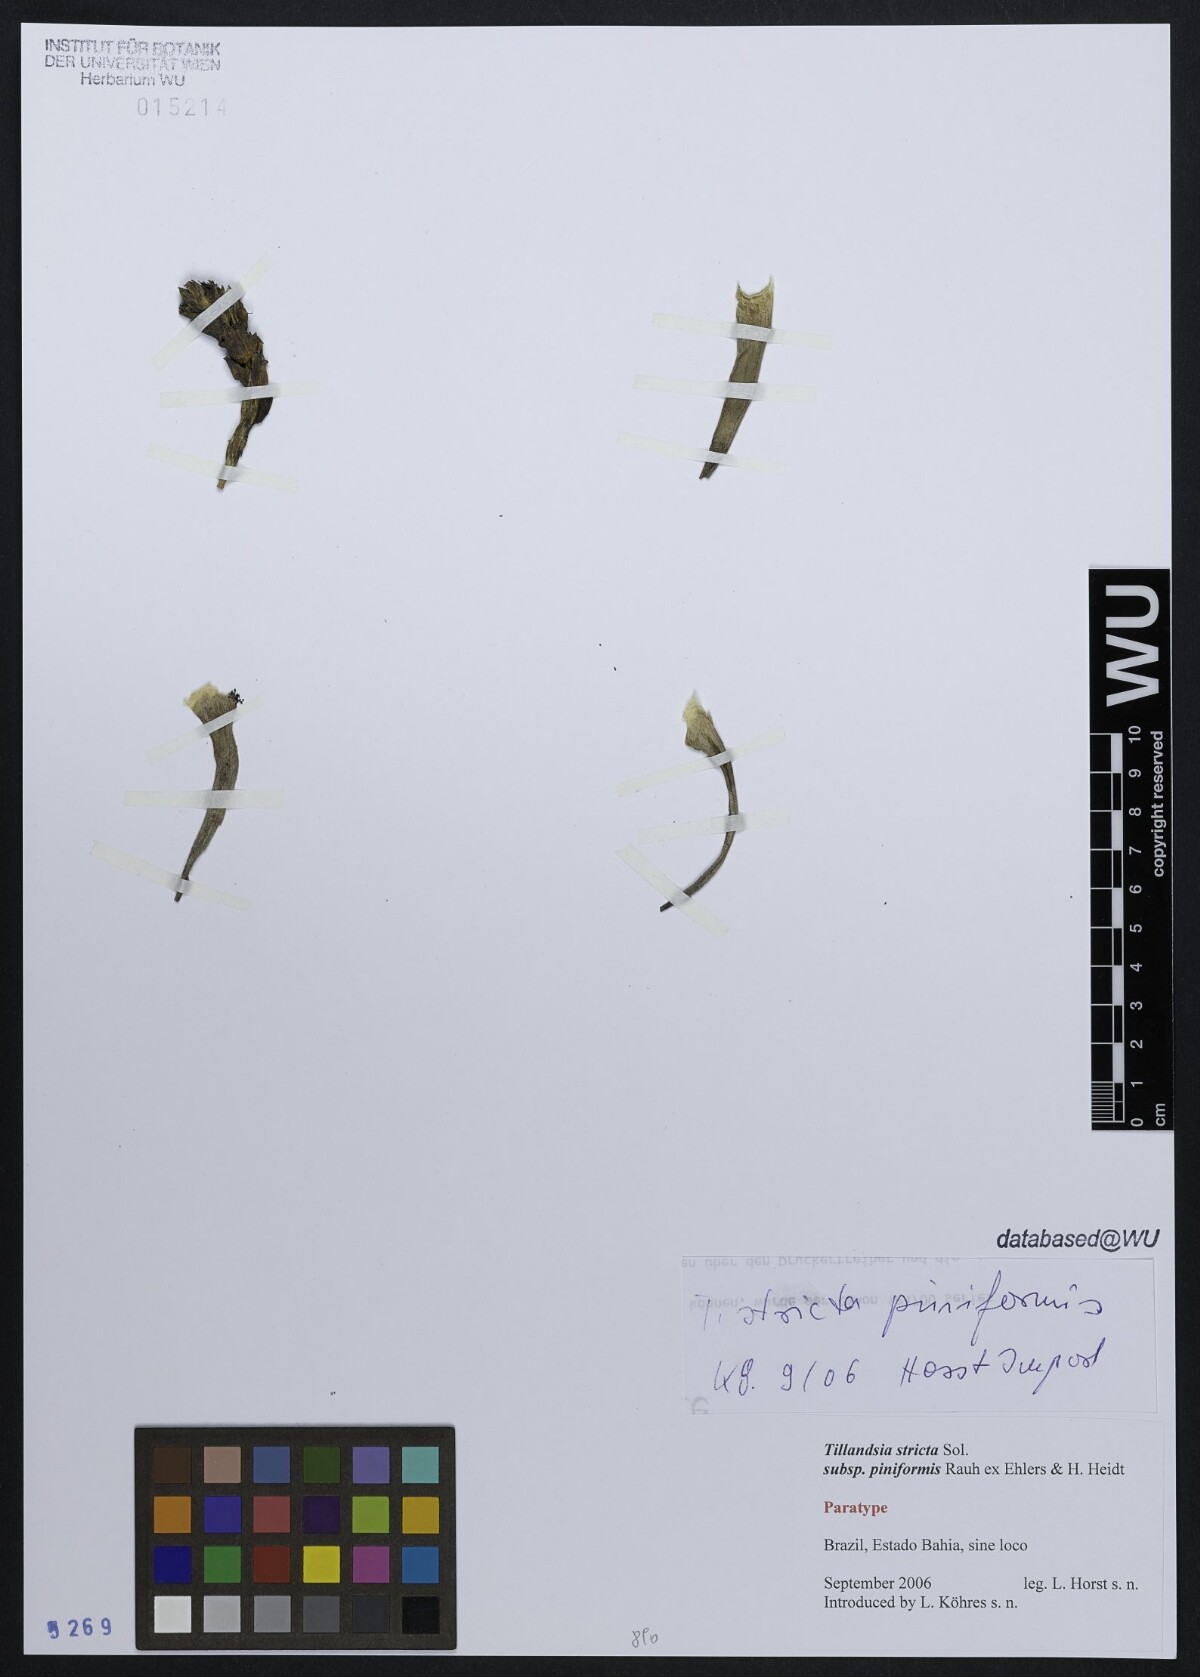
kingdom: Plantae
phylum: Tracheophyta
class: Liliopsida
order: Poales
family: Bromeliaceae
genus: Tillandsia
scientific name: Tillandsia stricta
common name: Airplant
